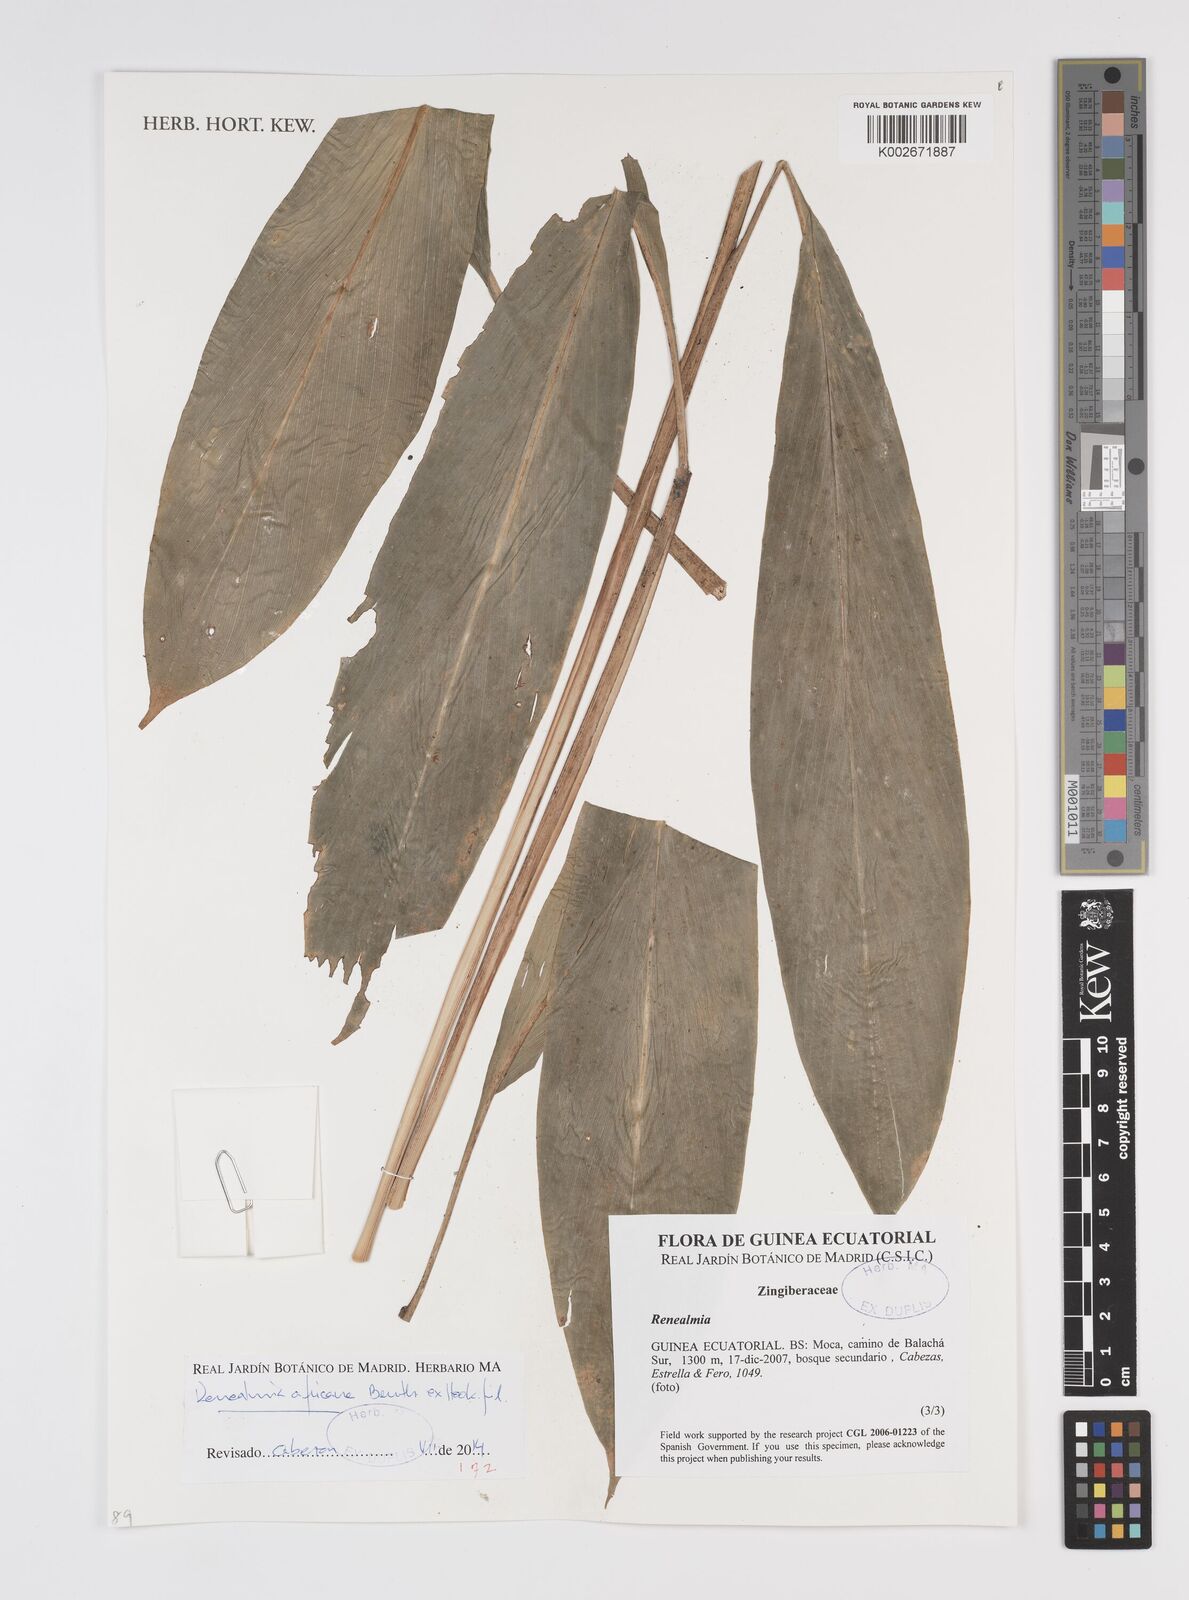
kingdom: Plantae
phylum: Tracheophyta
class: Liliopsida
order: Zingiberales
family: Zingiberaceae
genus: Renealmia
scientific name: Renealmia africana
